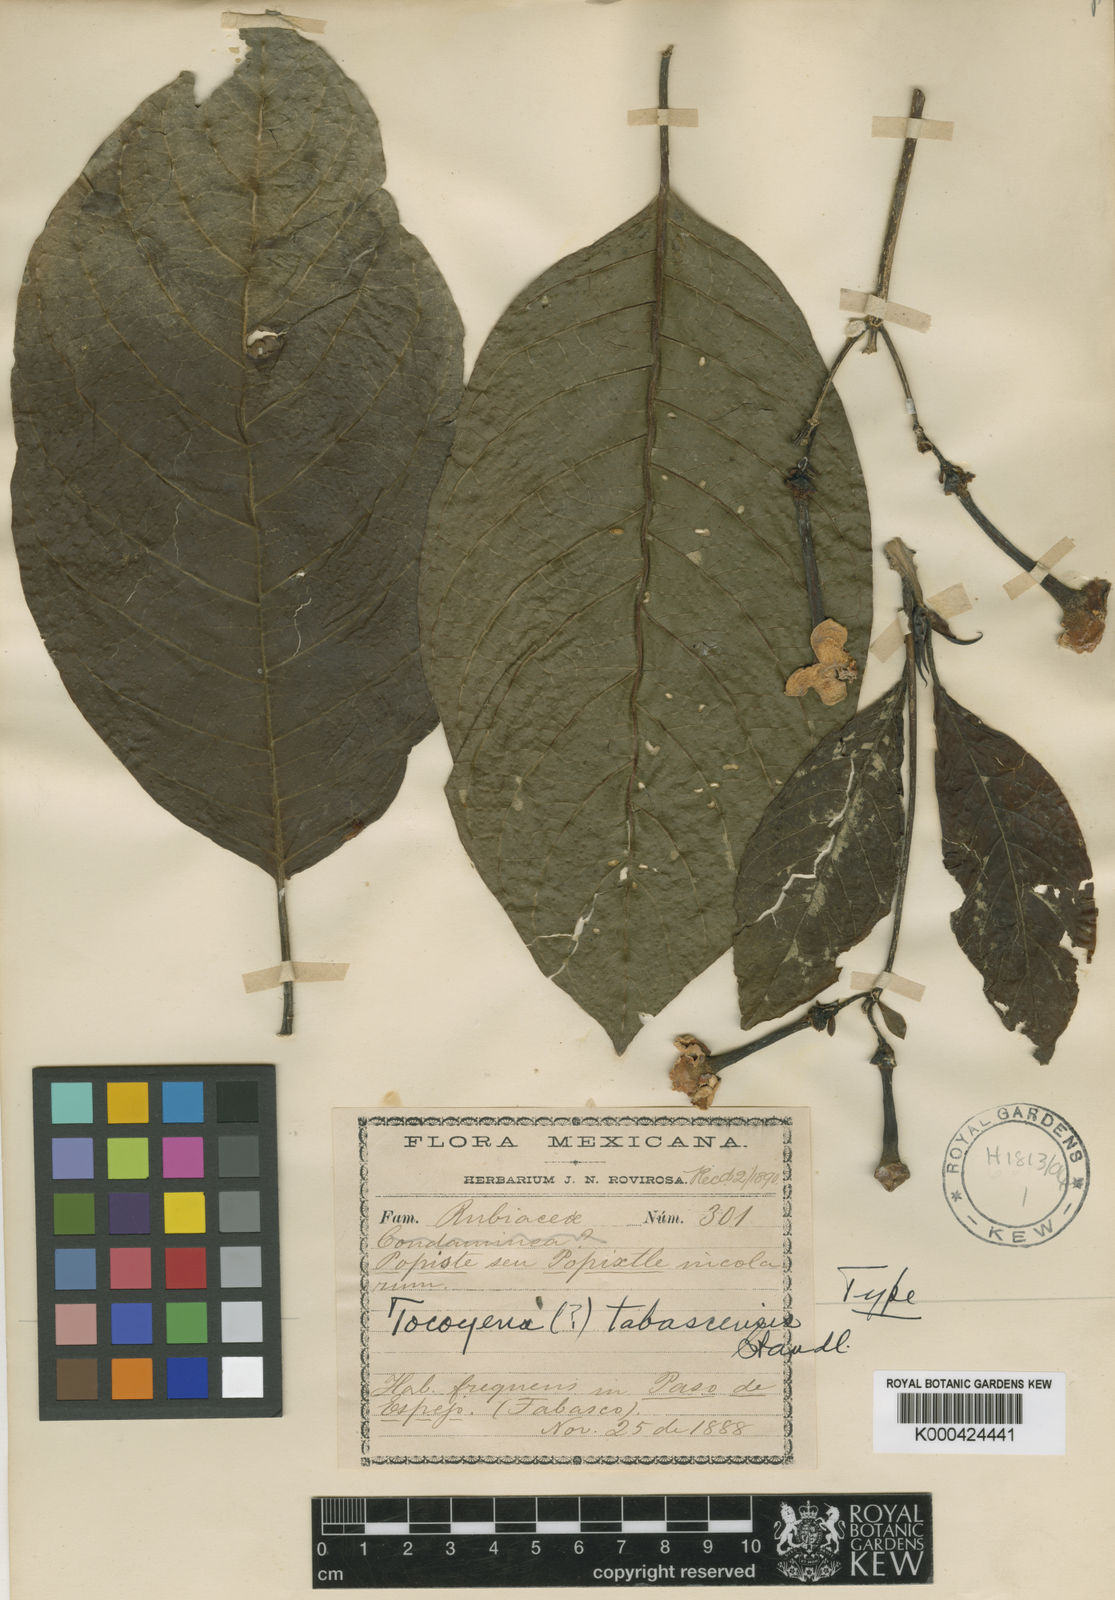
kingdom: Plantae
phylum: Tracheophyta
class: Magnoliopsida
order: Gentianales
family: Rubiaceae
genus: Blepharidium
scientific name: Blepharidium guatemalense
